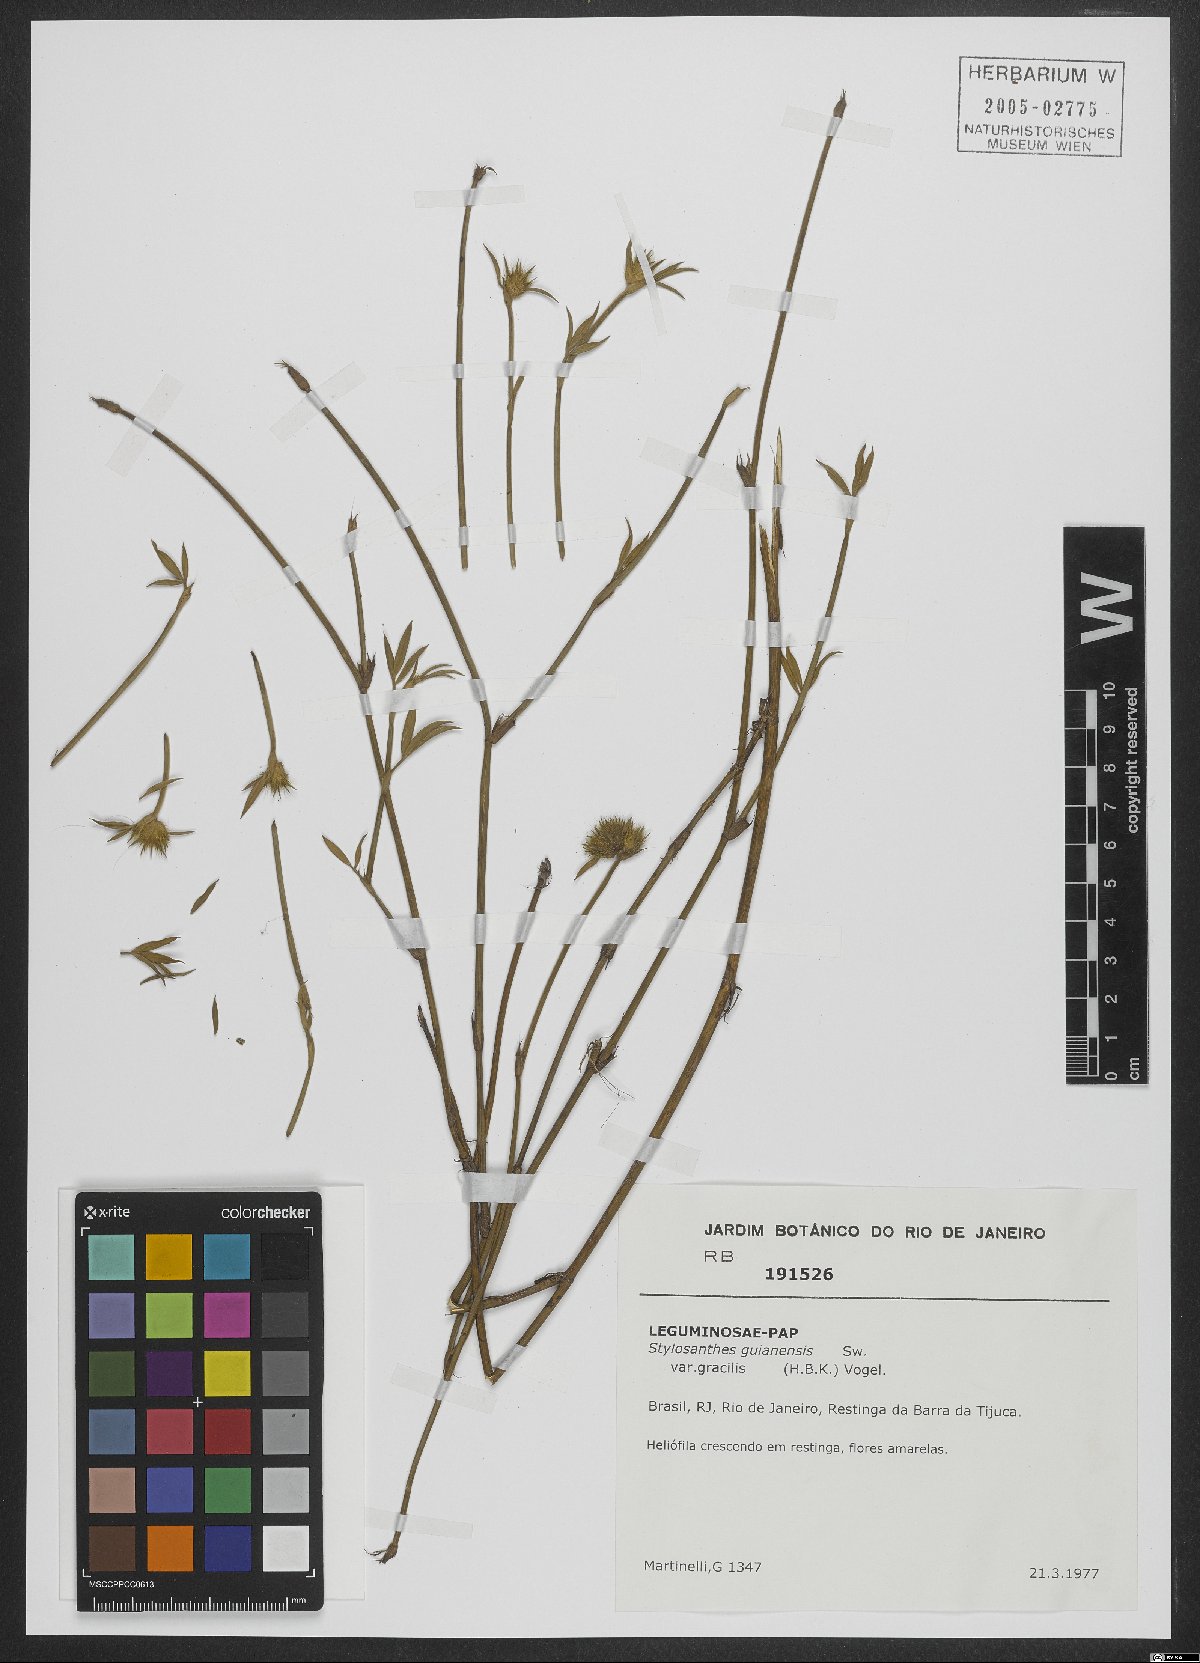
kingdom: Plantae
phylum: Tracheophyta
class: Magnoliopsida
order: Fabales
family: Fabaceae
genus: Stylosanthes
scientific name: Stylosanthes guianensis
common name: Pencil flower
